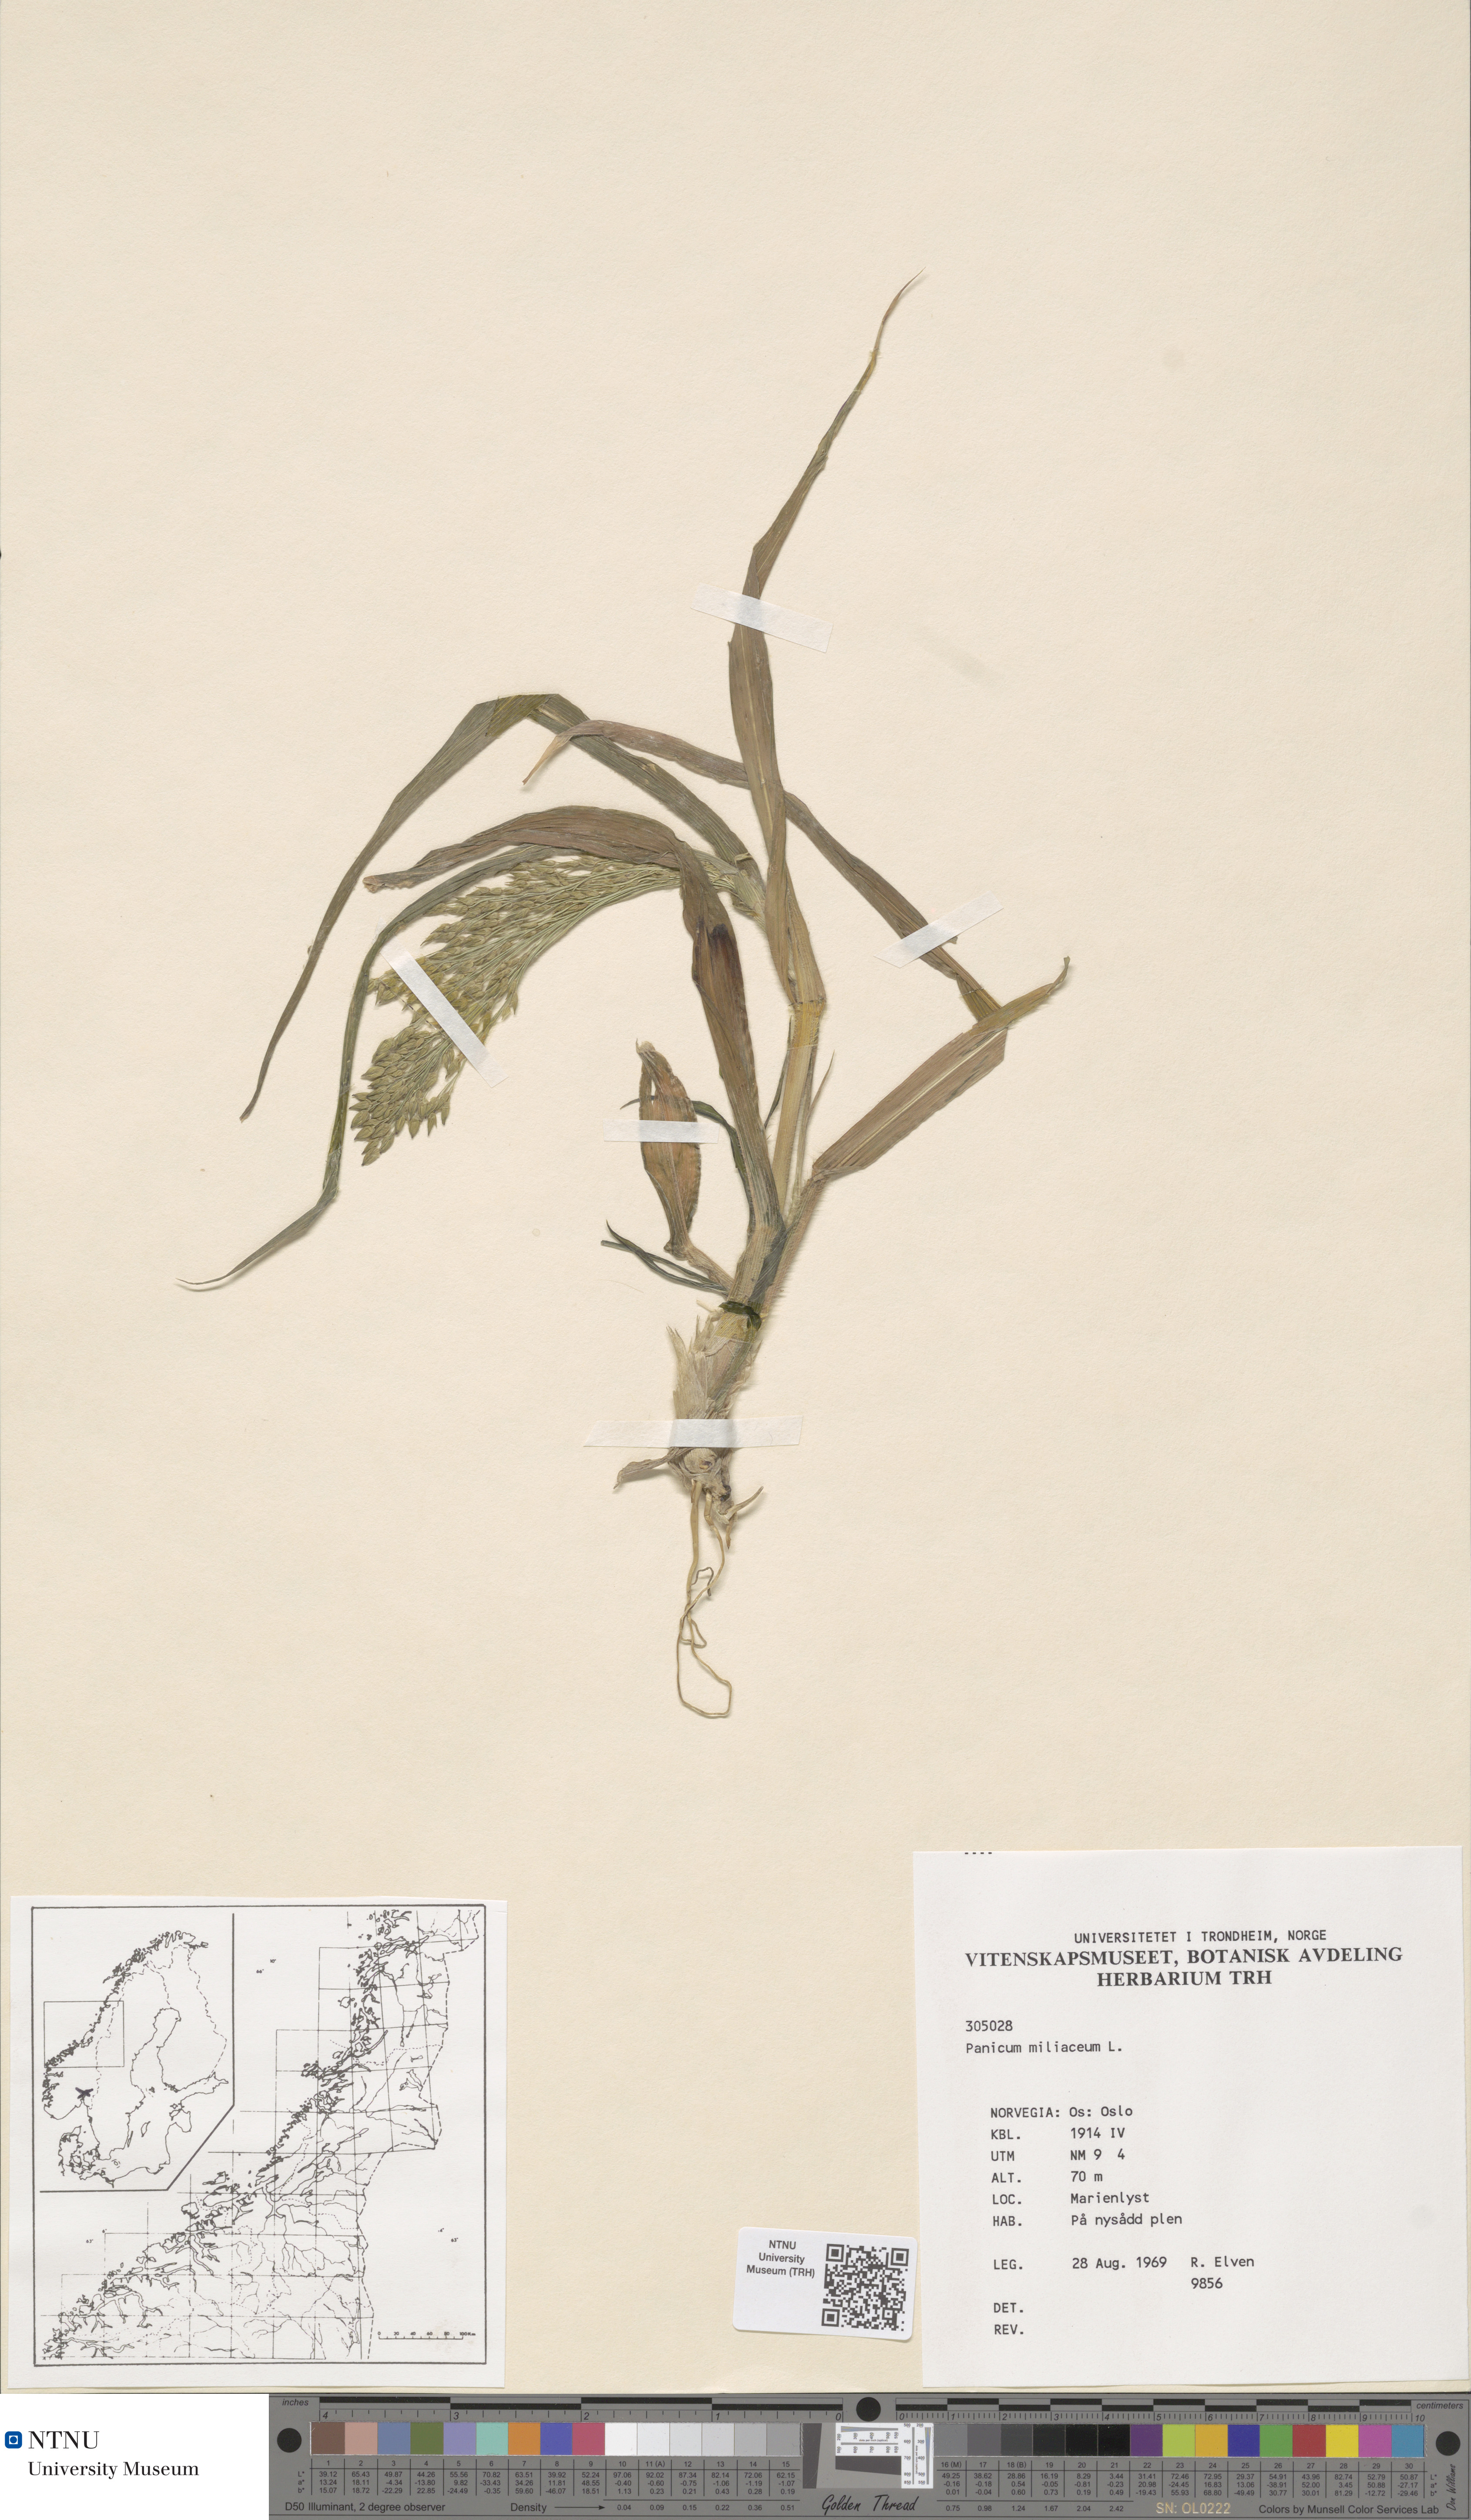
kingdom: Plantae
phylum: Tracheophyta
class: Liliopsida
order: Poales
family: Poaceae
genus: Panicum
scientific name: Panicum miliaceum
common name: Common millet
